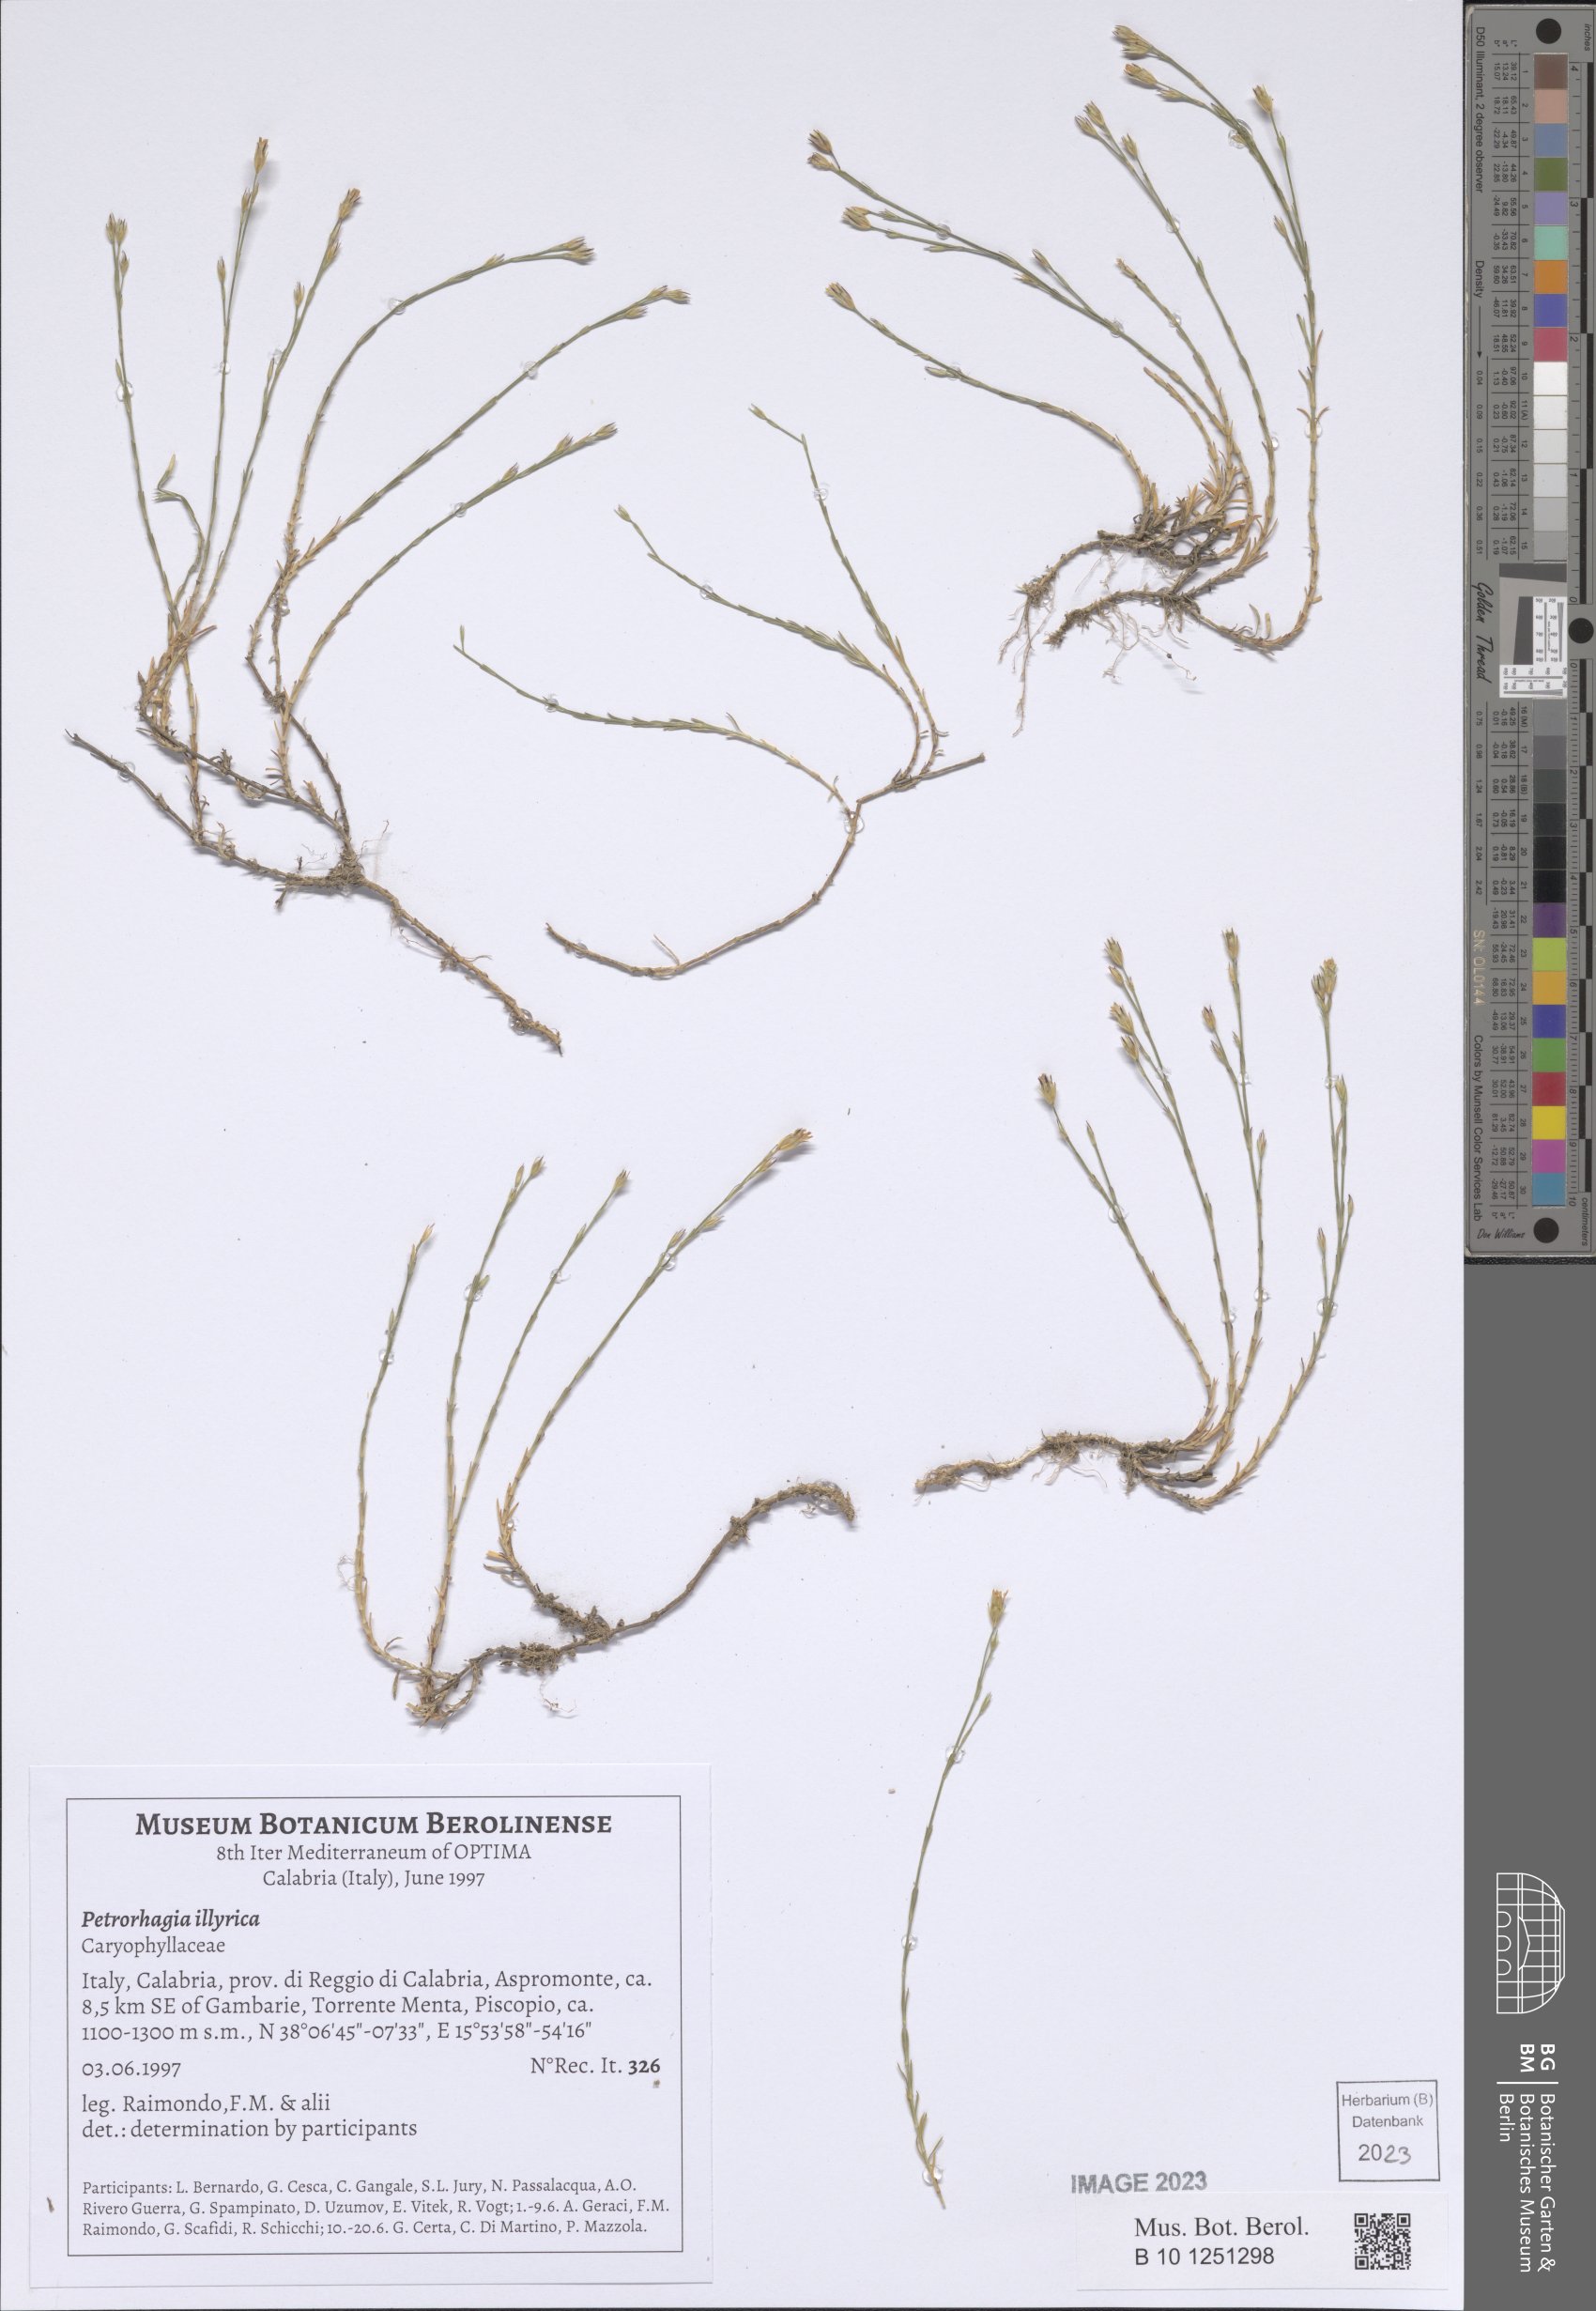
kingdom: Plantae
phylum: Tracheophyta
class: Magnoliopsida
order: Caryophyllales
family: Caryophyllaceae
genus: Dianthus
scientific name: Dianthus illyricus
